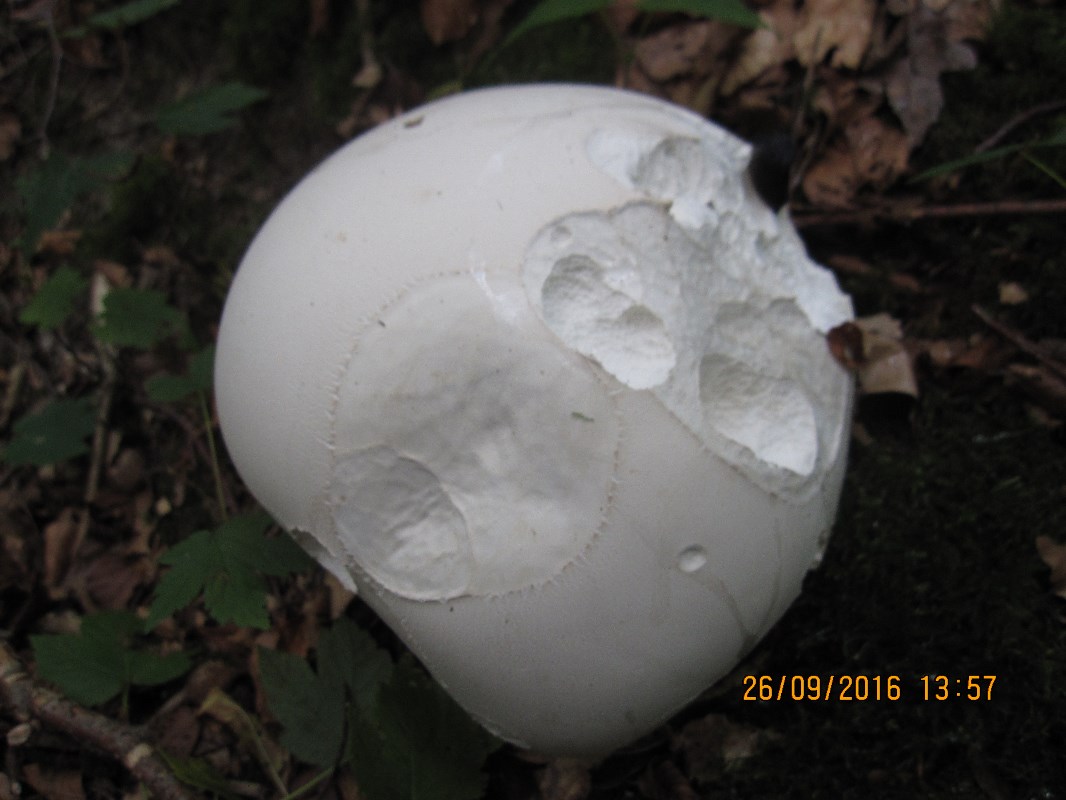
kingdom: Fungi
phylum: Basidiomycota
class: Agaricomycetes
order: Agaricales
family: Lycoperdaceae
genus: Calvatia
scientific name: Calvatia gigantea
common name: kæmpestøvbold
